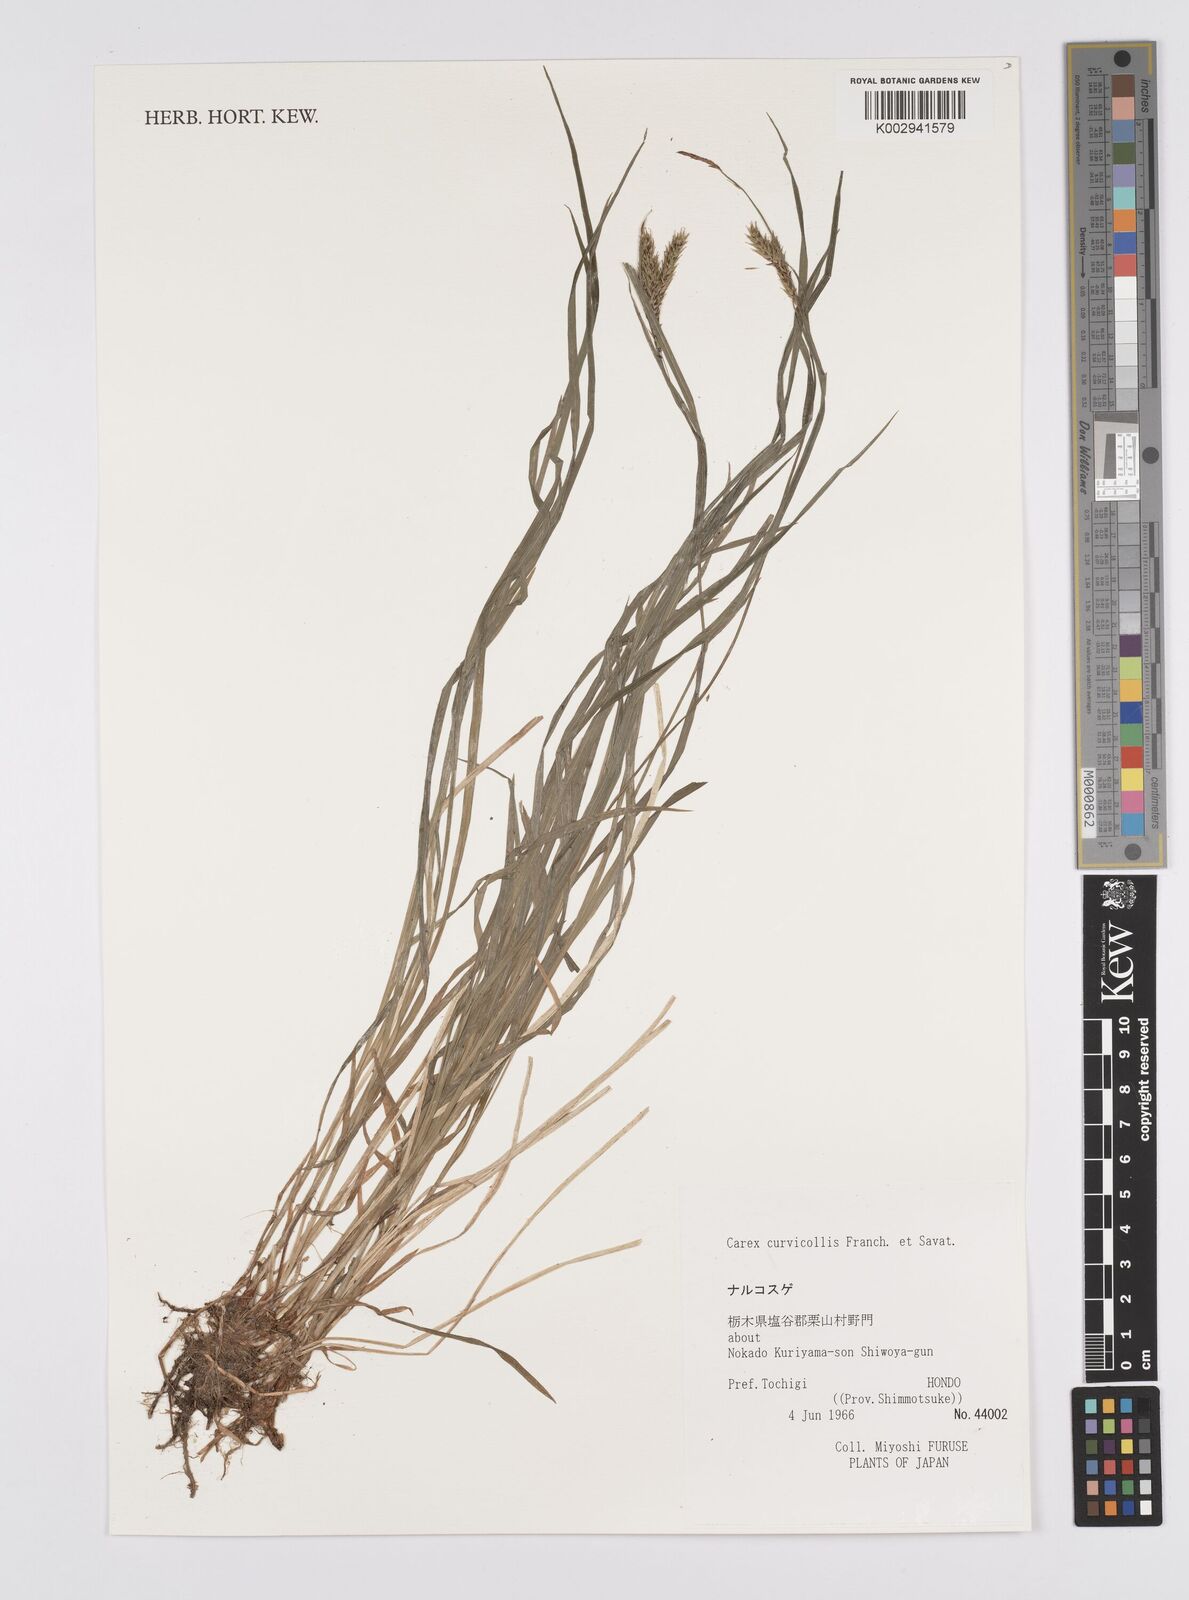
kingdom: Plantae
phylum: Tracheophyta
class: Liliopsida
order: Poales
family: Cyperaceae
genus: Carex
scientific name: Carex curvicollis
